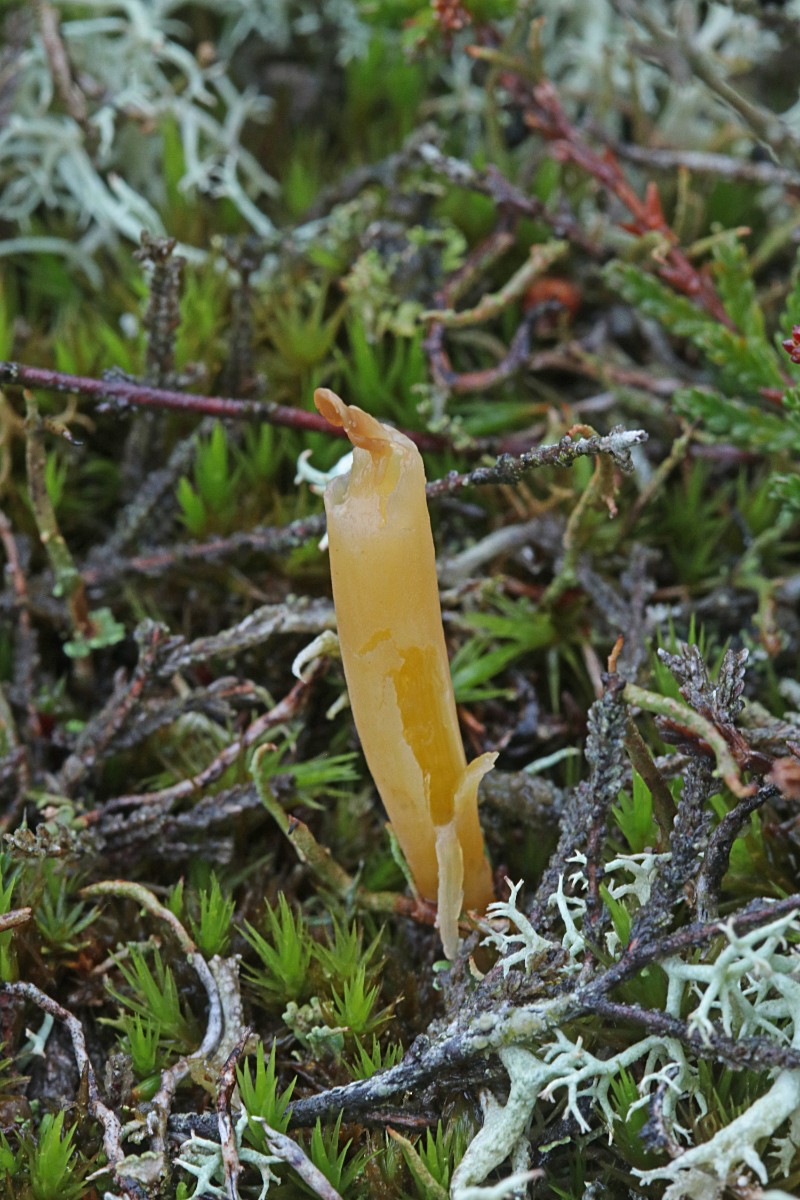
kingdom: Fungi
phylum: Basidiomycota
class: Agaricomycetes
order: Agaricales
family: Clavariaceae
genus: Clavaria
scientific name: Clavaria argillacea
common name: lerfarvet køllesvamp
